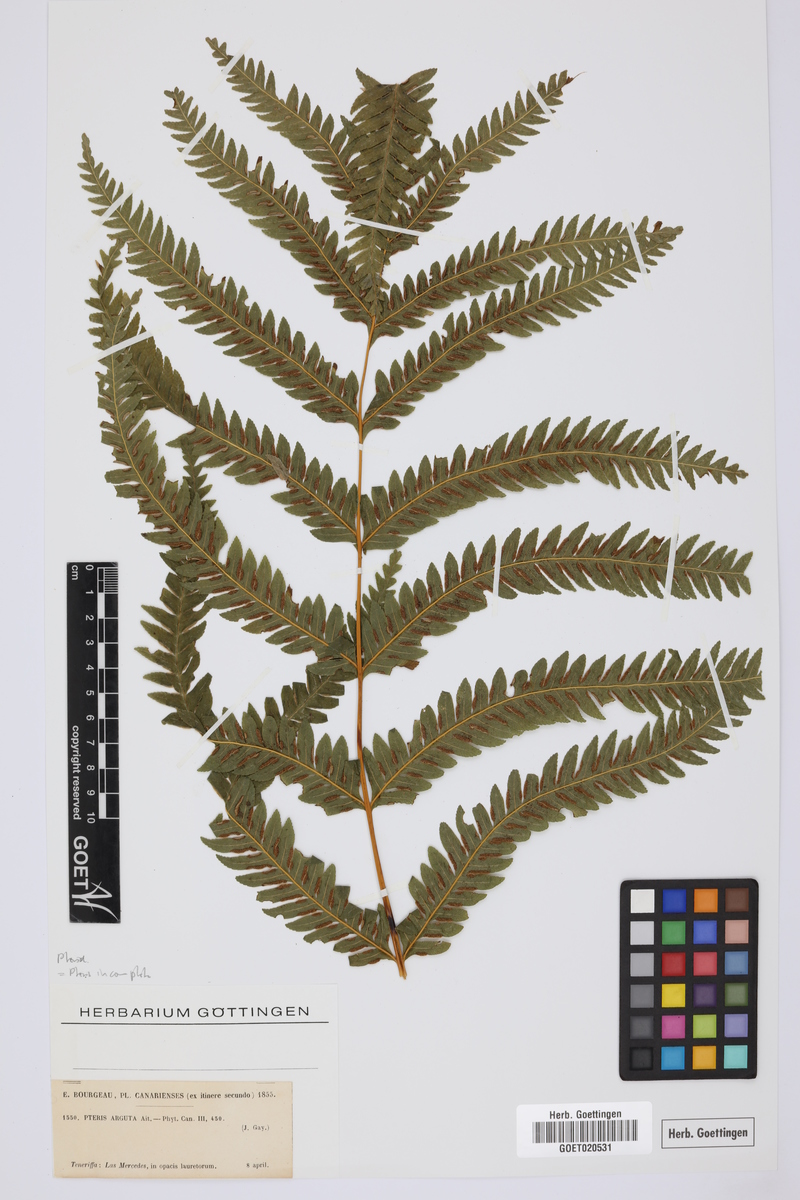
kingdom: Plantae
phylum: Tracheophyta
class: Polypodiopsida
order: Polypodiales
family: Pteridaceae
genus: Pteris
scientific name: Pteris incompleta
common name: Laurisilva brake
